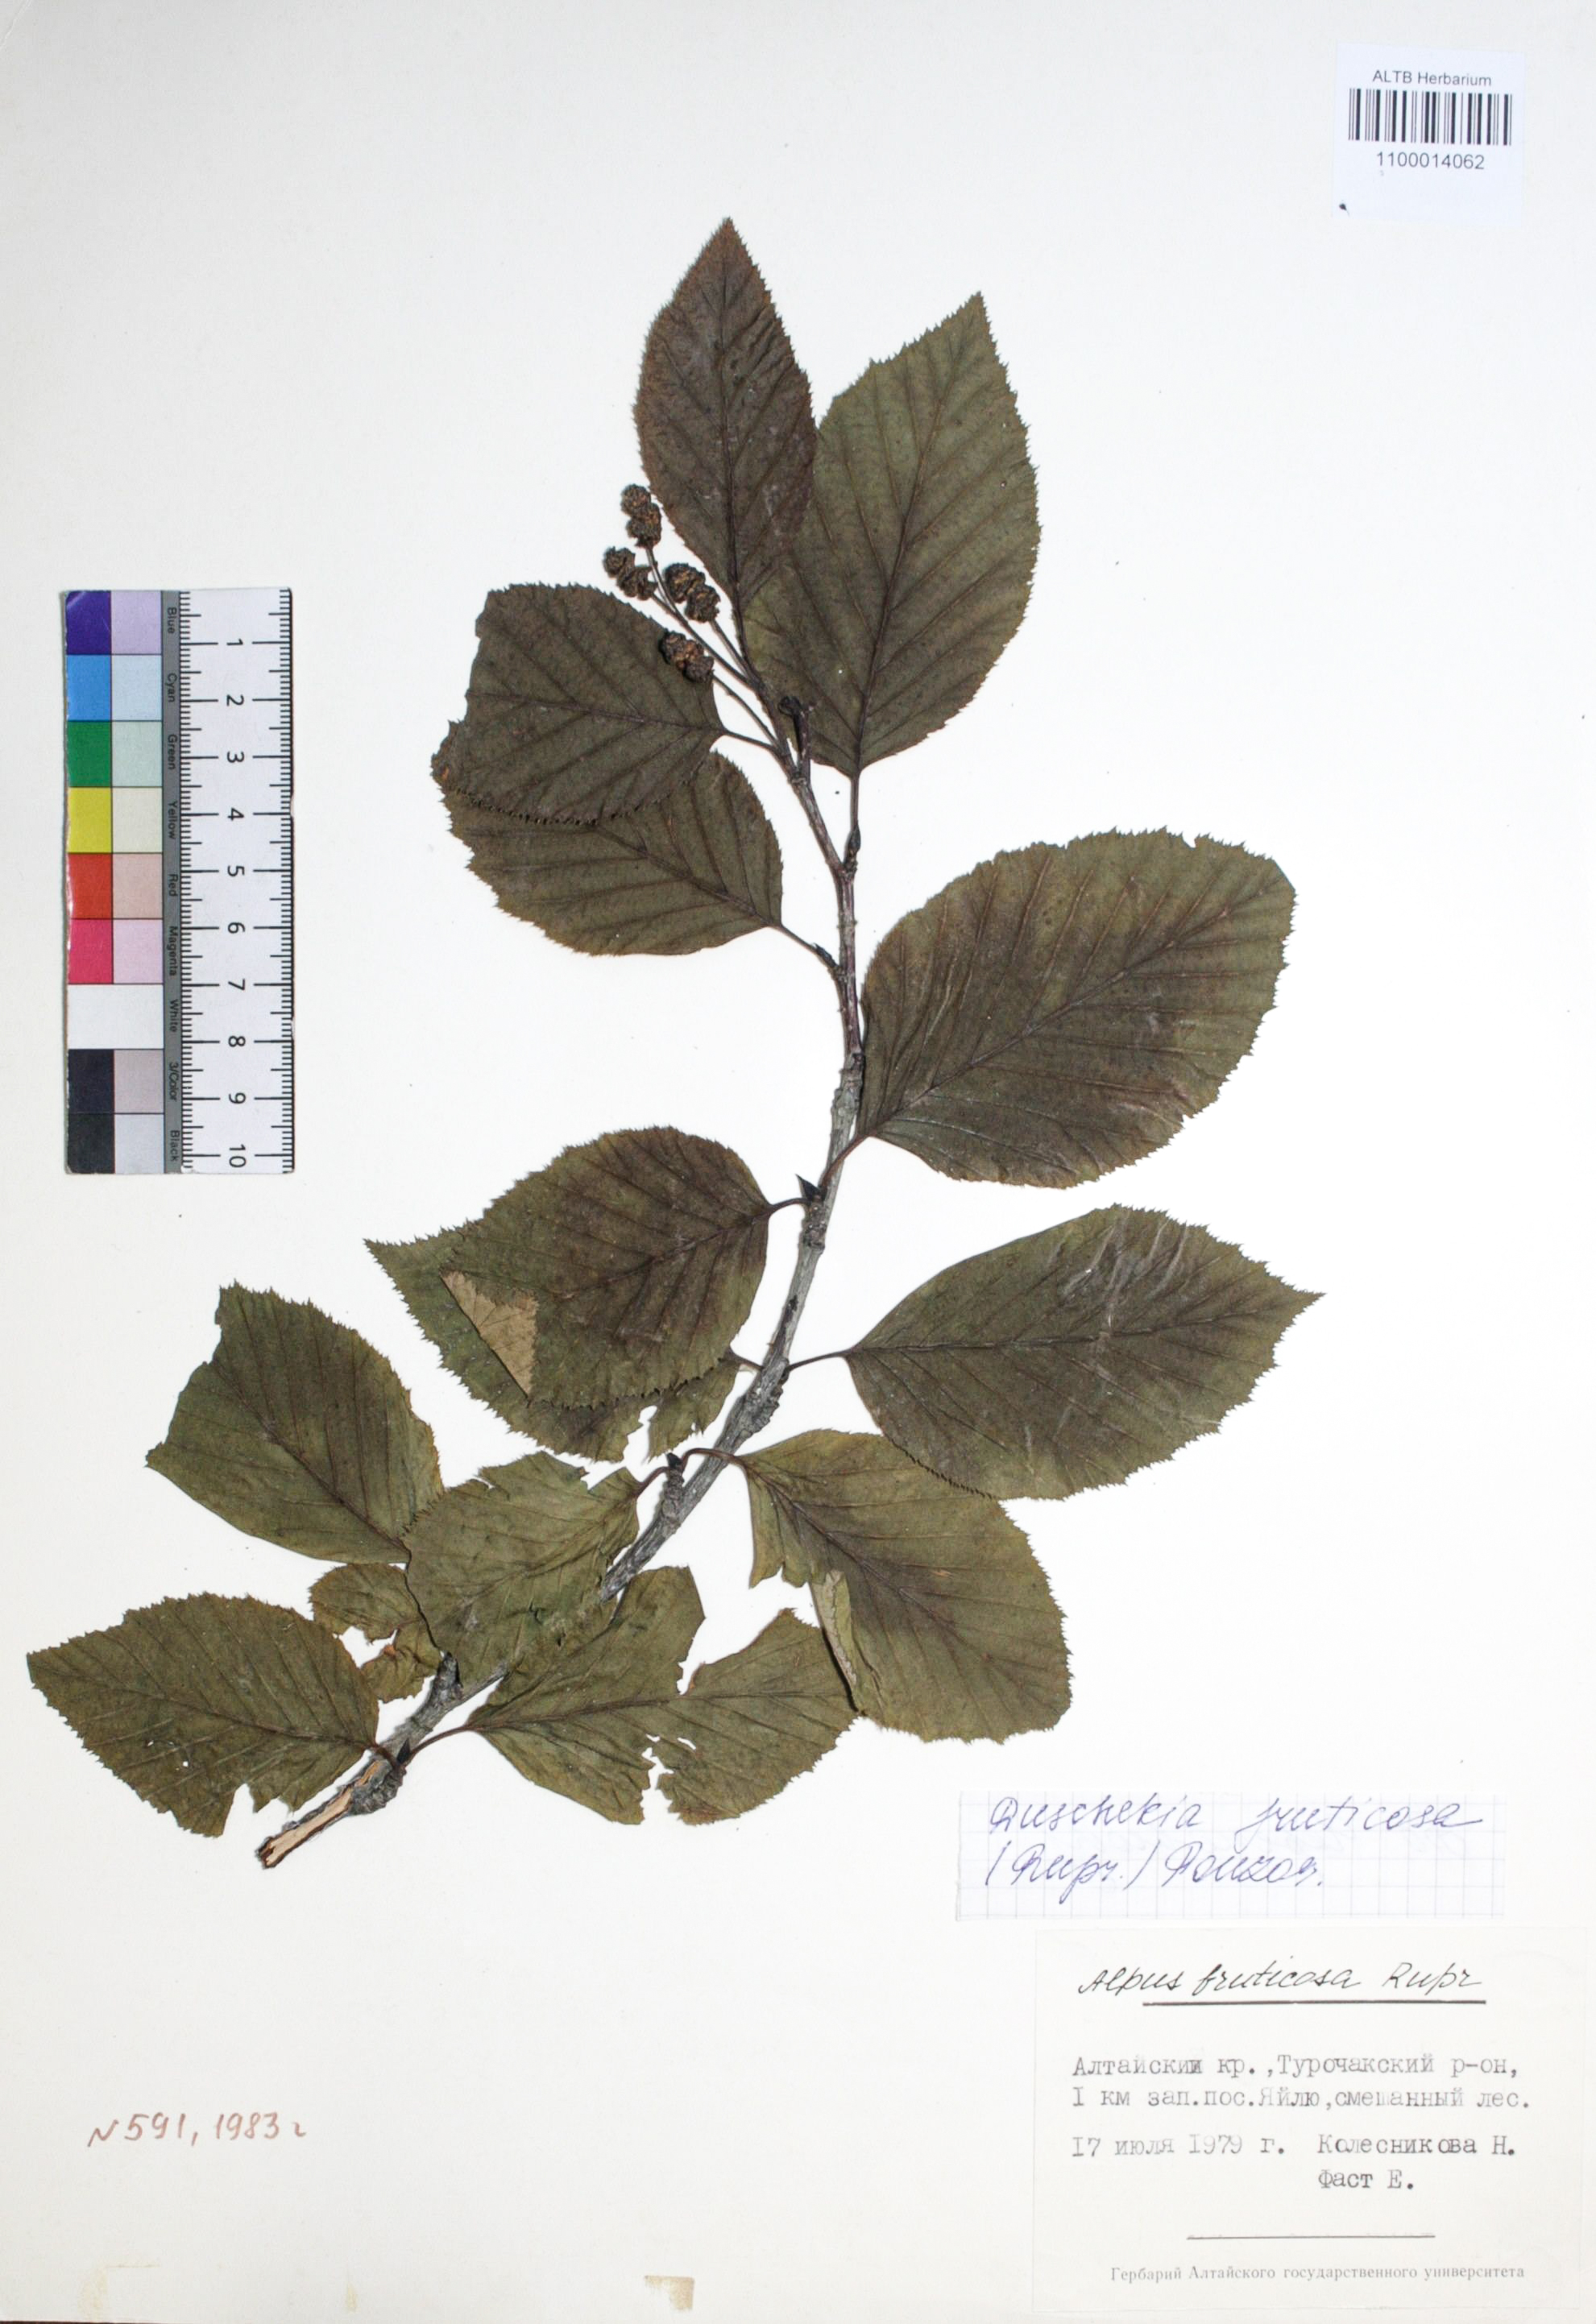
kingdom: Plantae
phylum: Tracheophyta
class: Magnoliopsida
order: Fagales
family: Betulaceae
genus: Alnus
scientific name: Alnus alnobetula
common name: Green alder
